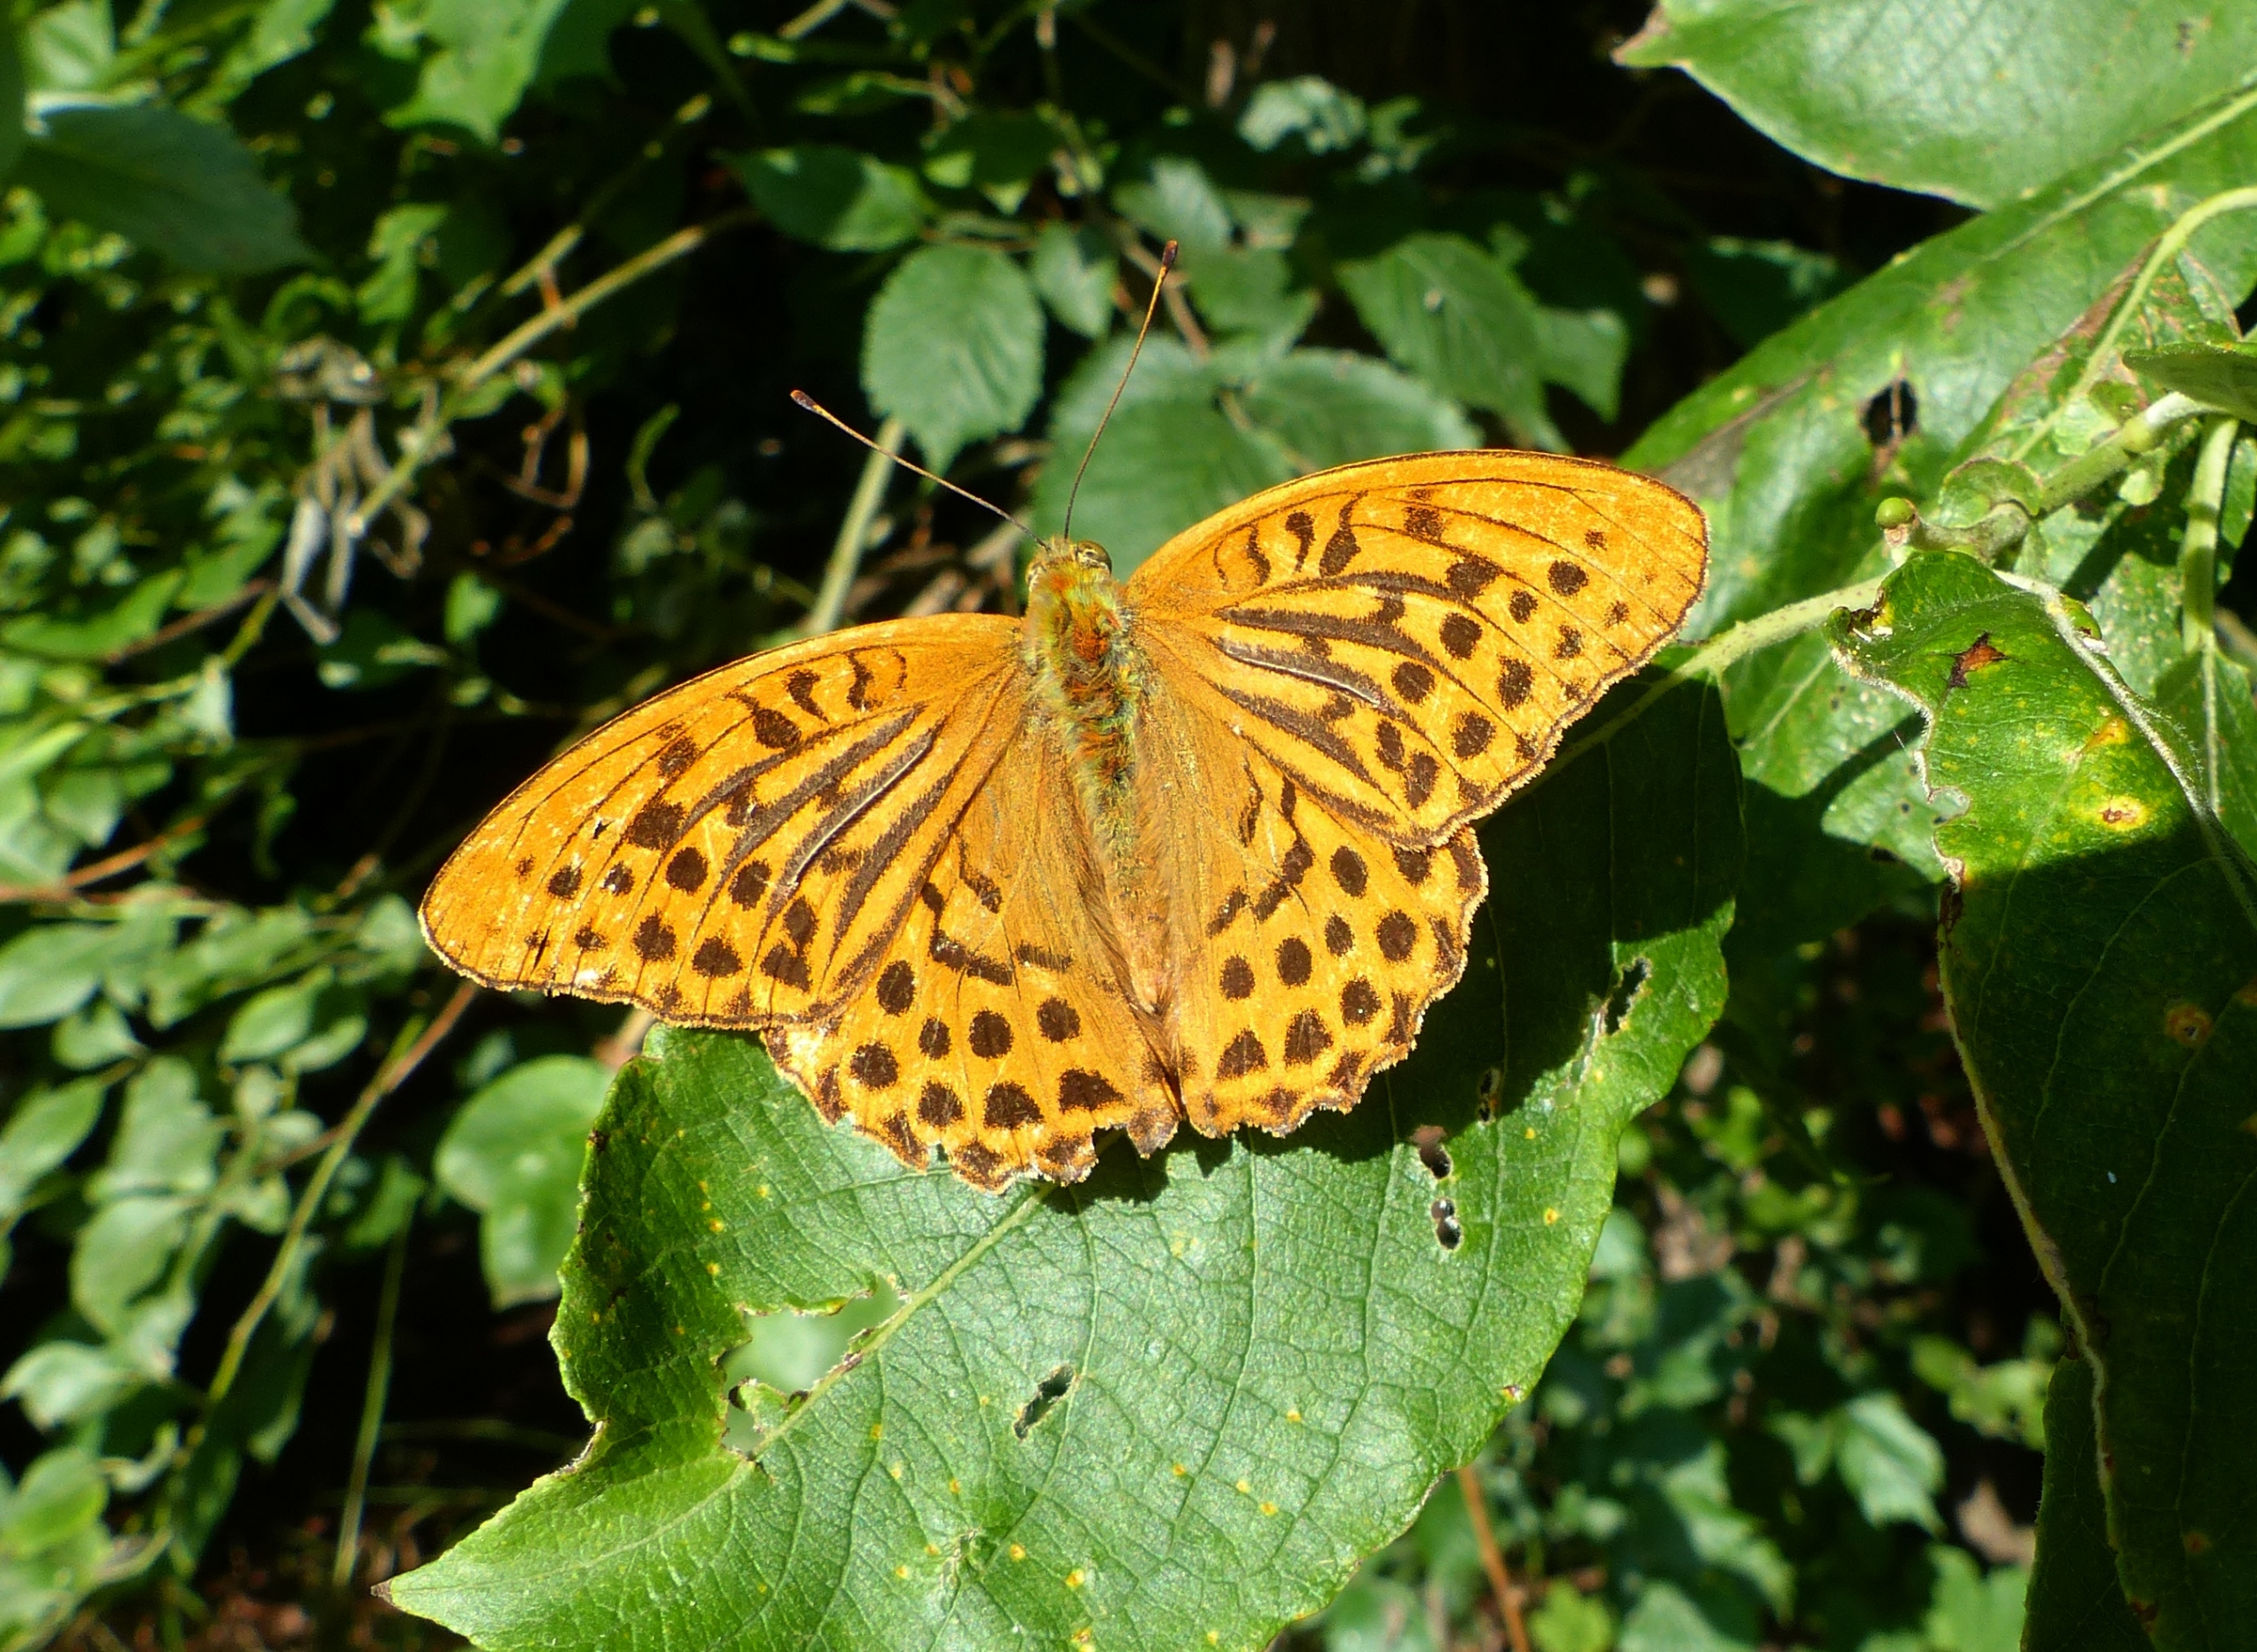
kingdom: Animalia
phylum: Arthropoda
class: Insecta
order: Lepidoptera
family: Nymphalidae
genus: Argynnis
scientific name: Argynnis paphia
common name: Kejserkåbe
